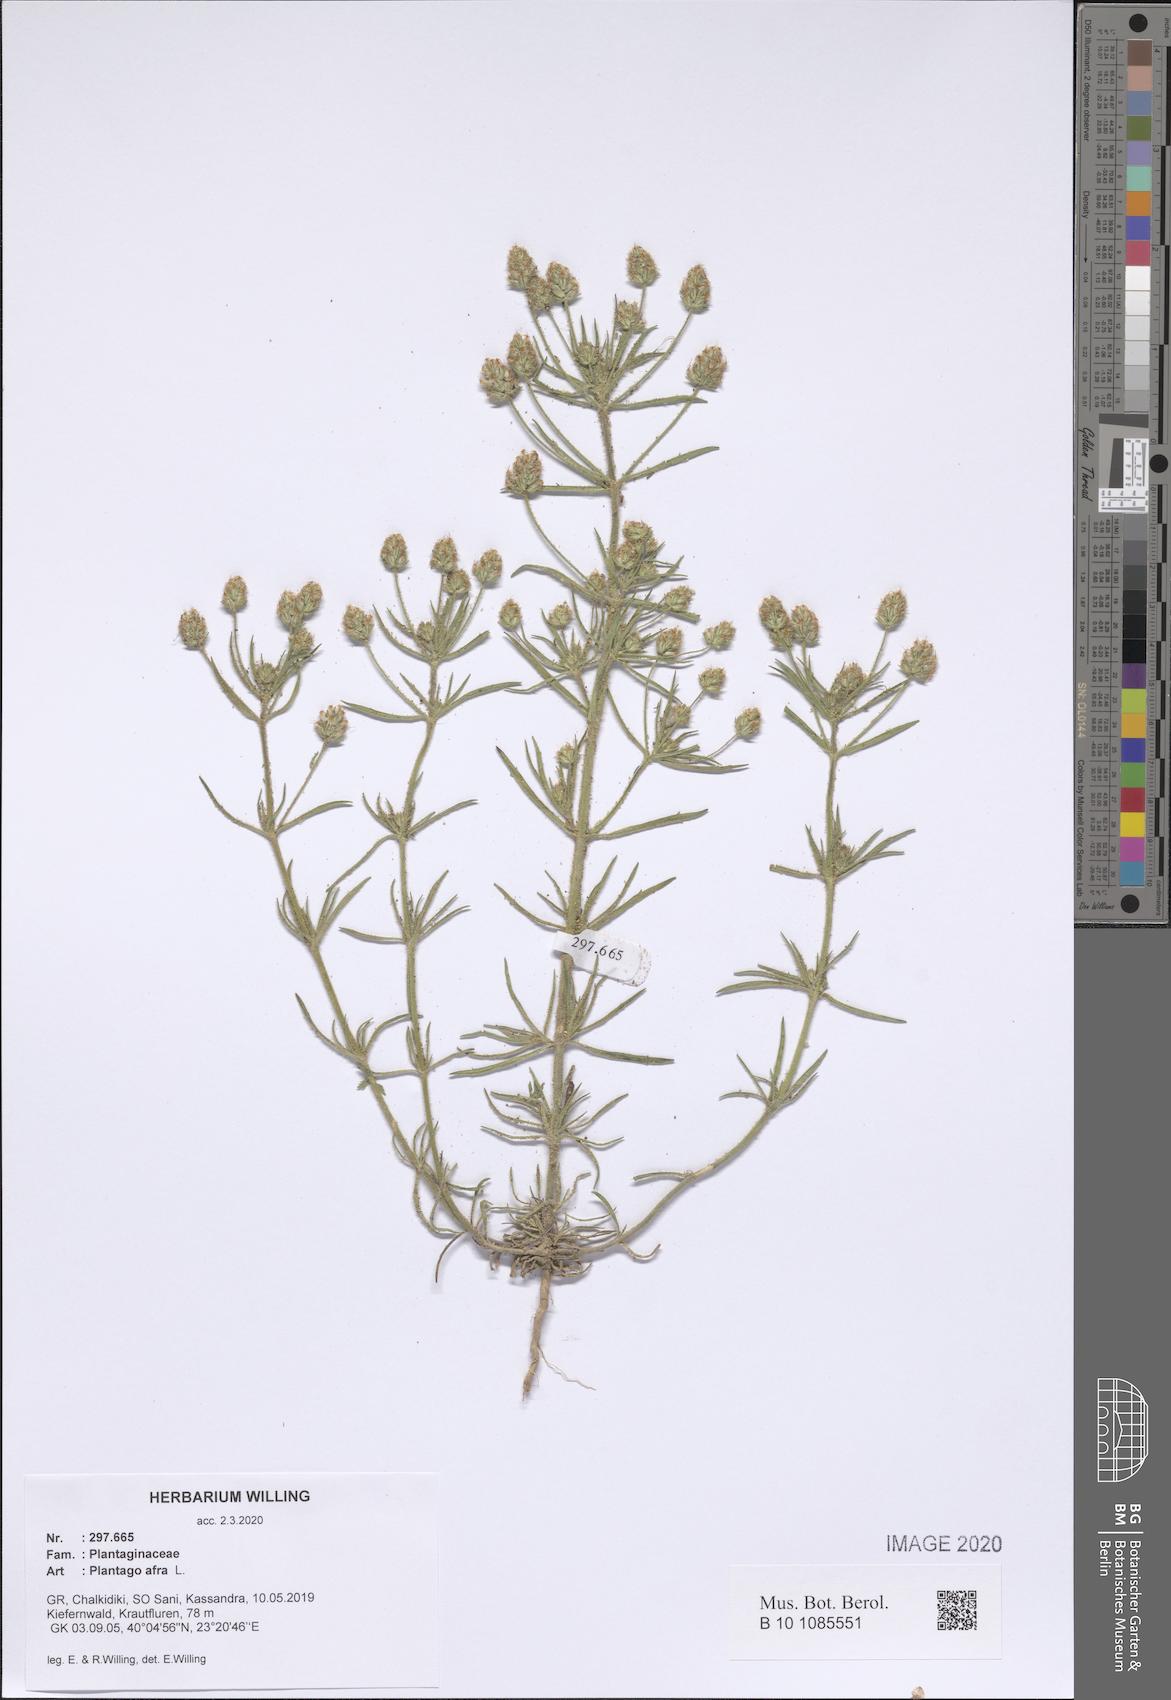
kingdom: Plantae
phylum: Tracheophyta
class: Magnoliopsida
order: Lamiales
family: Plantaginaceae
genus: Plantago
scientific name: Plantago afra
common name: Glandular plantain
